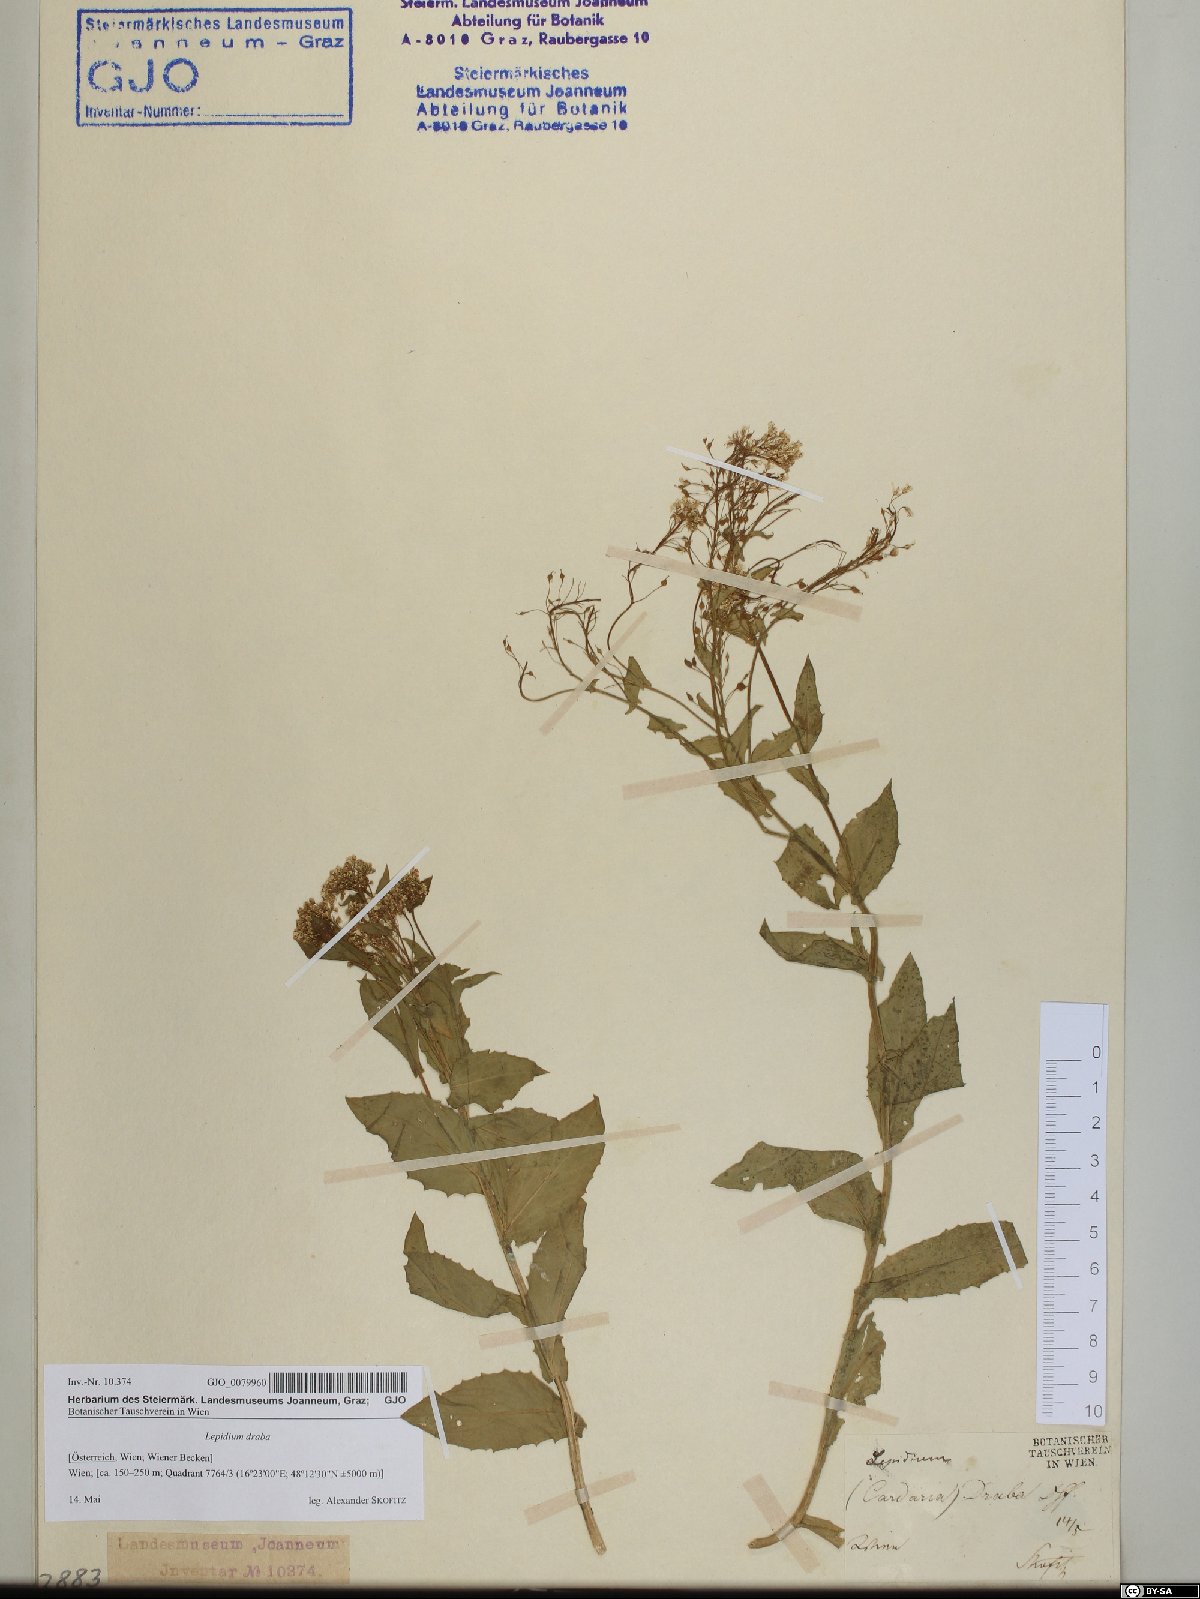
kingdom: Plantae
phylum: Tracheophyta
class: Magnoliopsida
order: Brassicales
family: Brassicaceae
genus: Lepidium
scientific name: Lepidium draba
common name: Hoary cress
